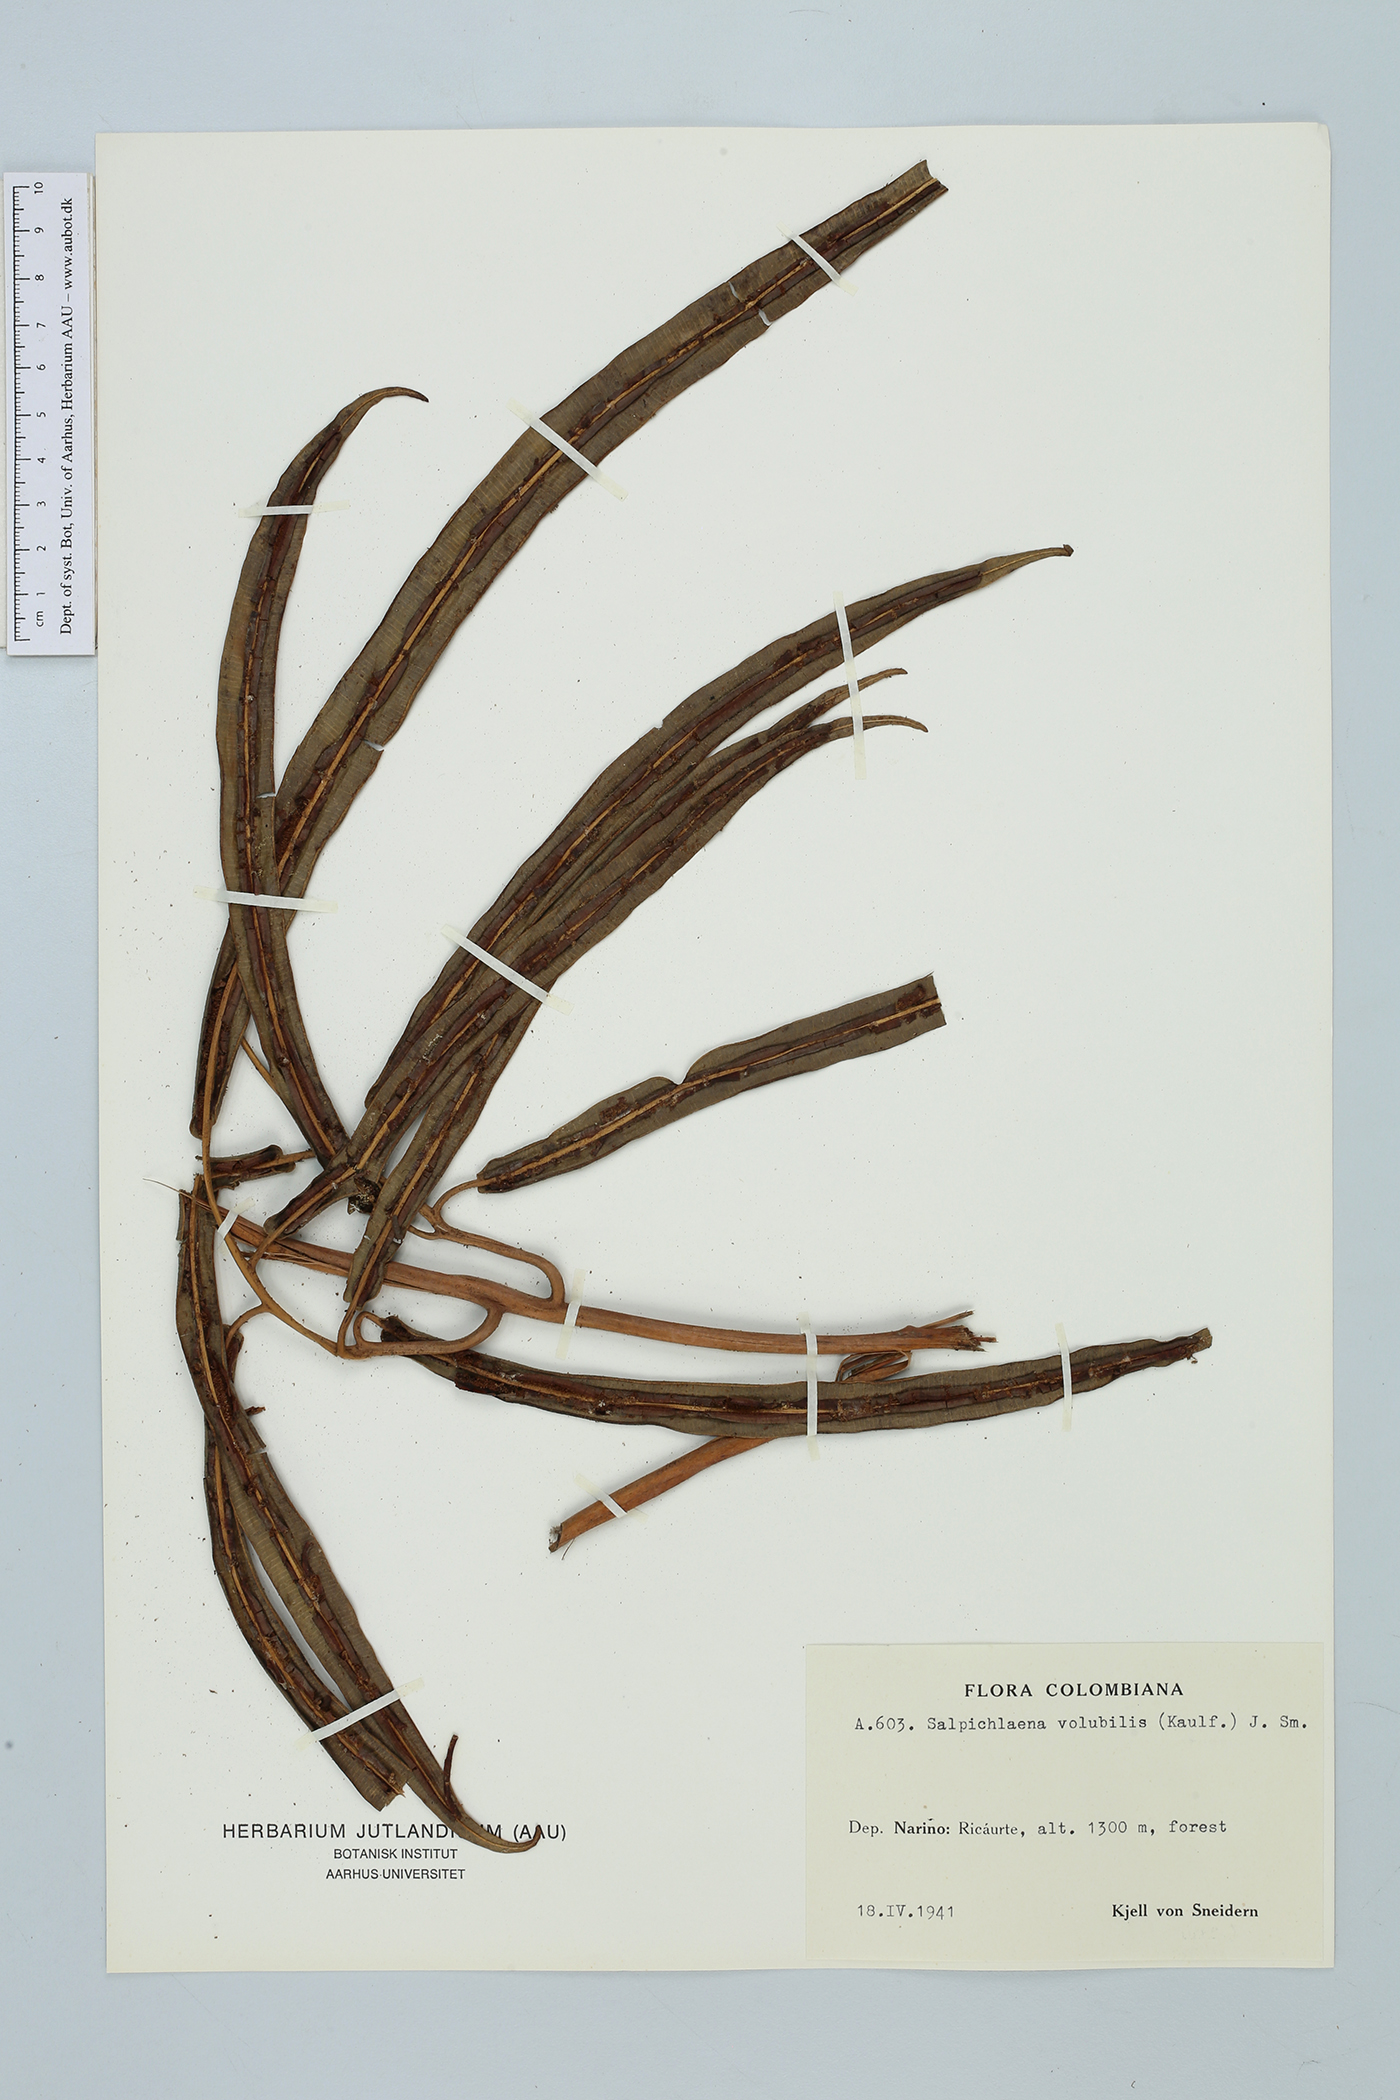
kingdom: Plantae
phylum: Tracheophyta
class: Polypodiopsida
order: Polypodiales
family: Blechnaceae
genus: Salpichlaena
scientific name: Salpichlaena volubilis
